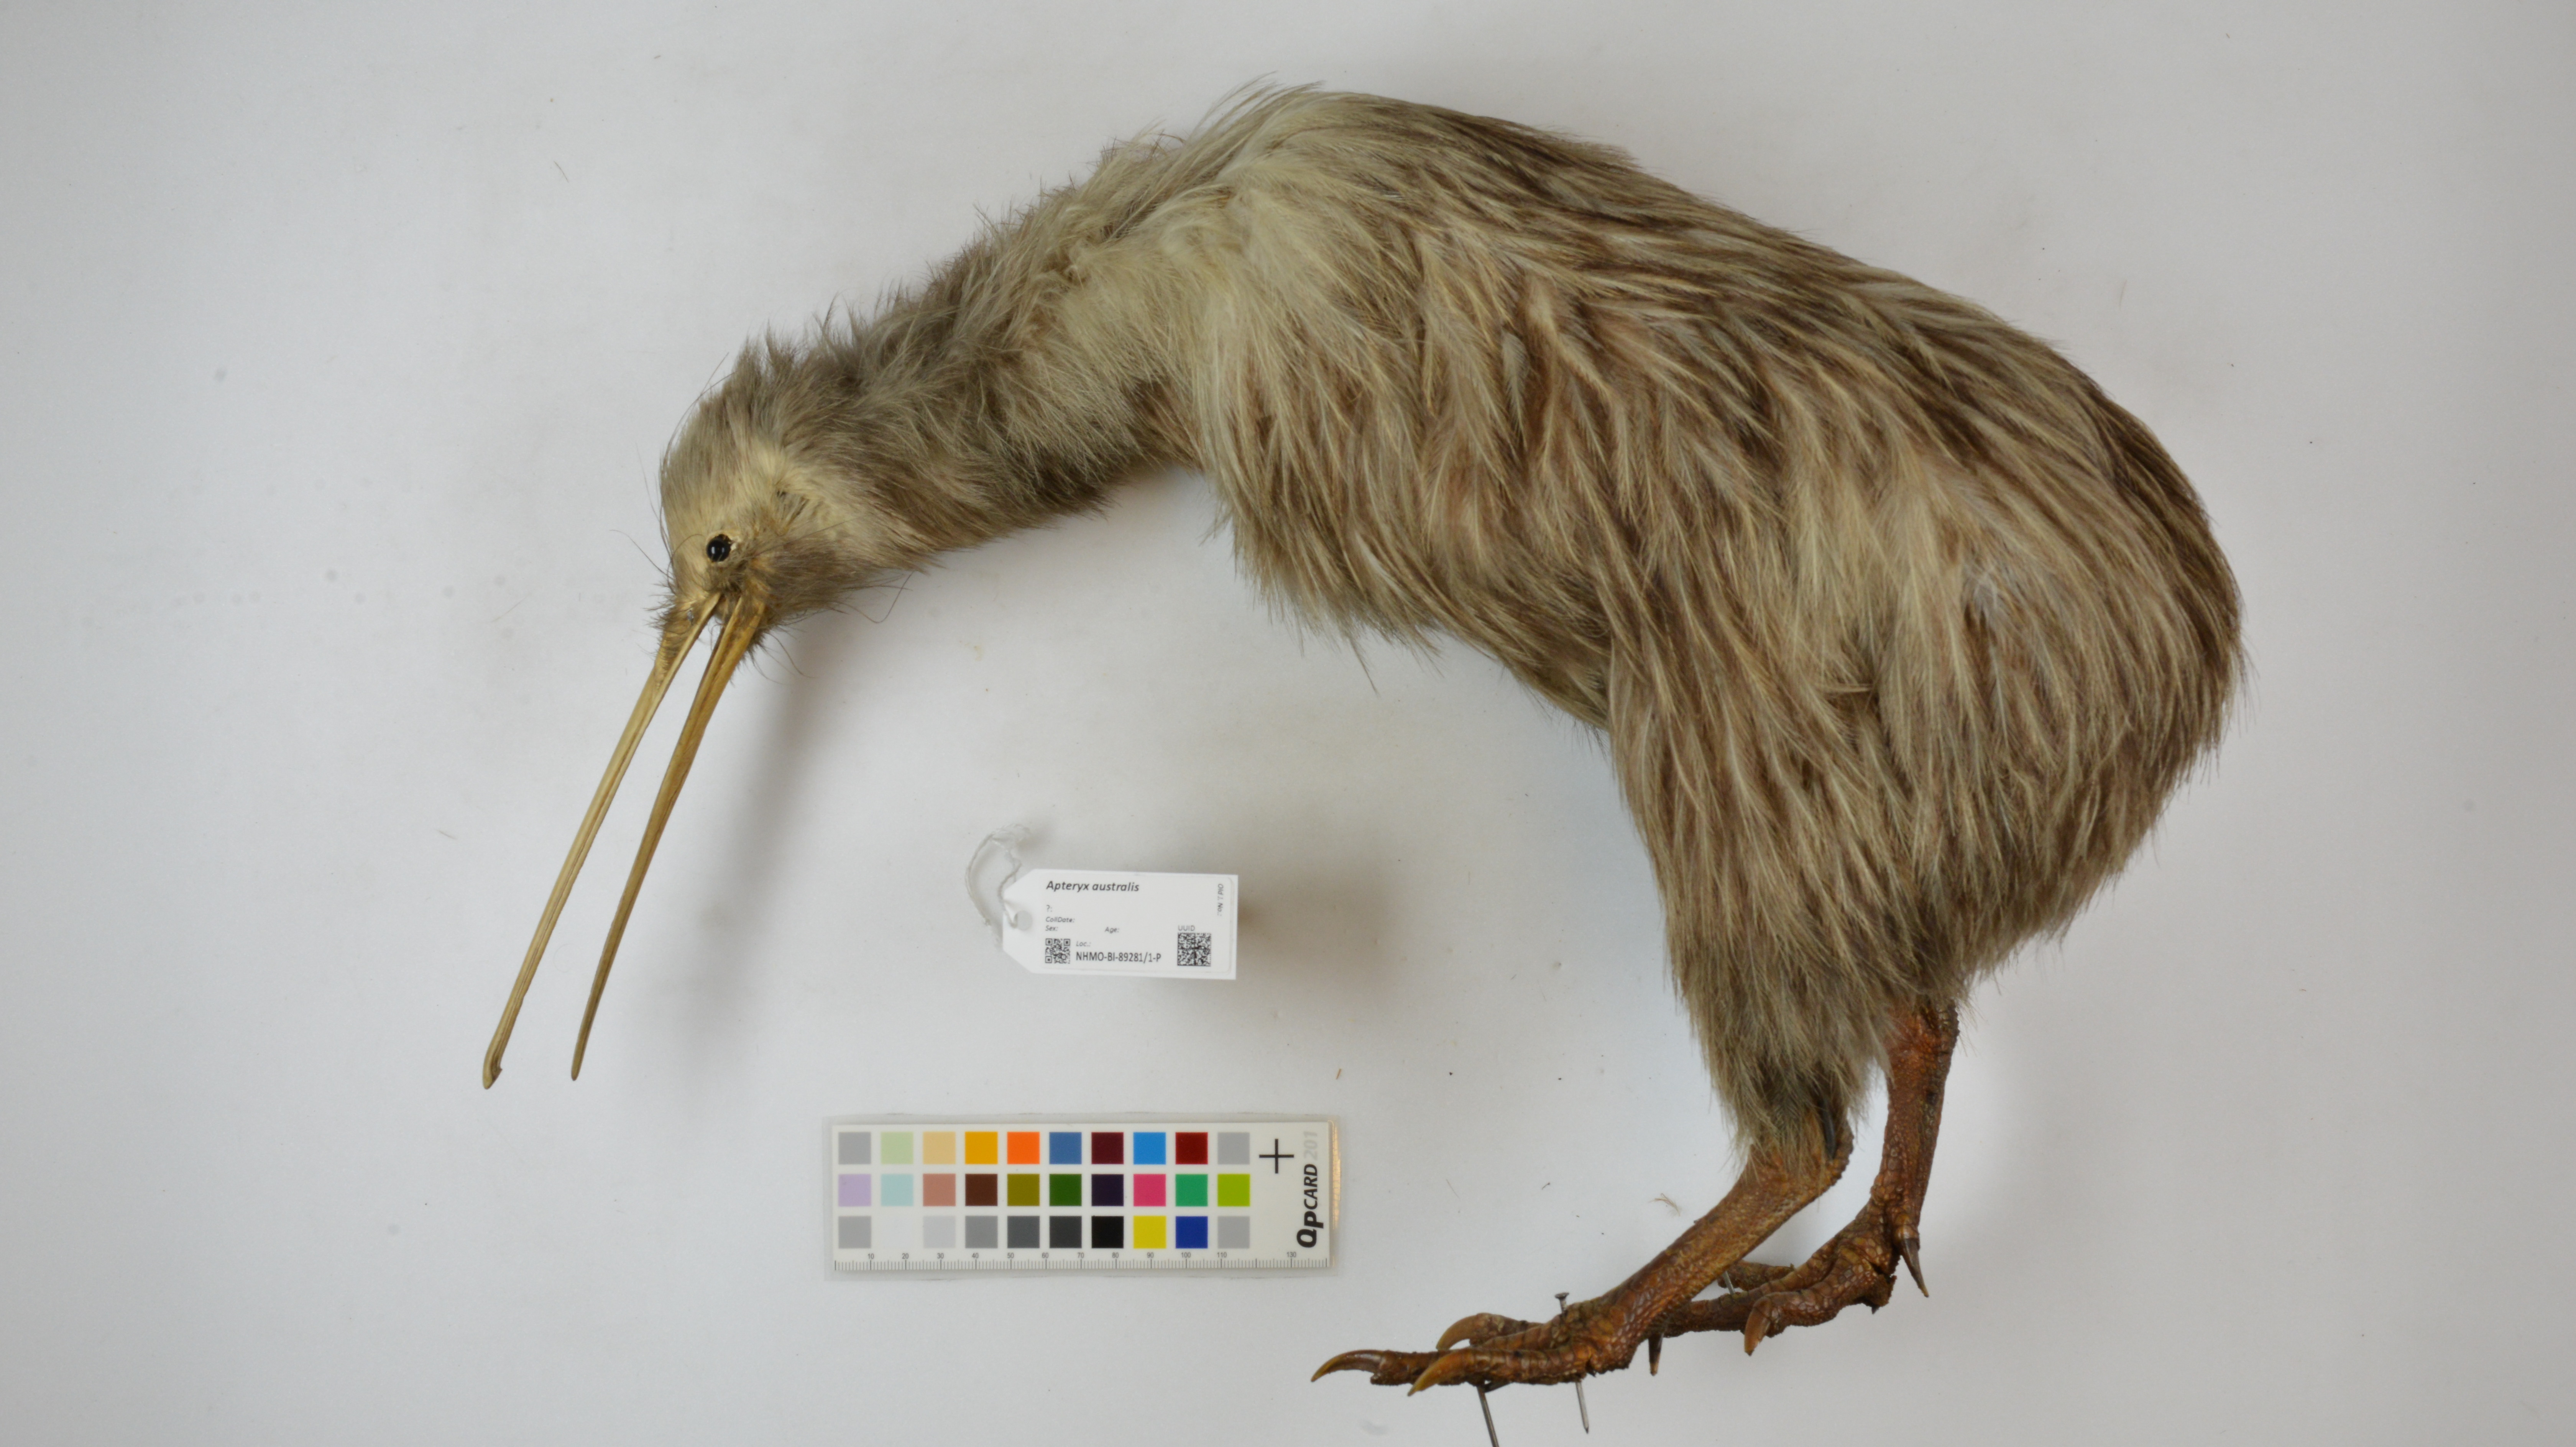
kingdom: Animalia
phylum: Chordata
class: Aves
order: Apterygiformes
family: Apterygidae
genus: Apteryx
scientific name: Apteryx australis
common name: Southern brown kiwi
